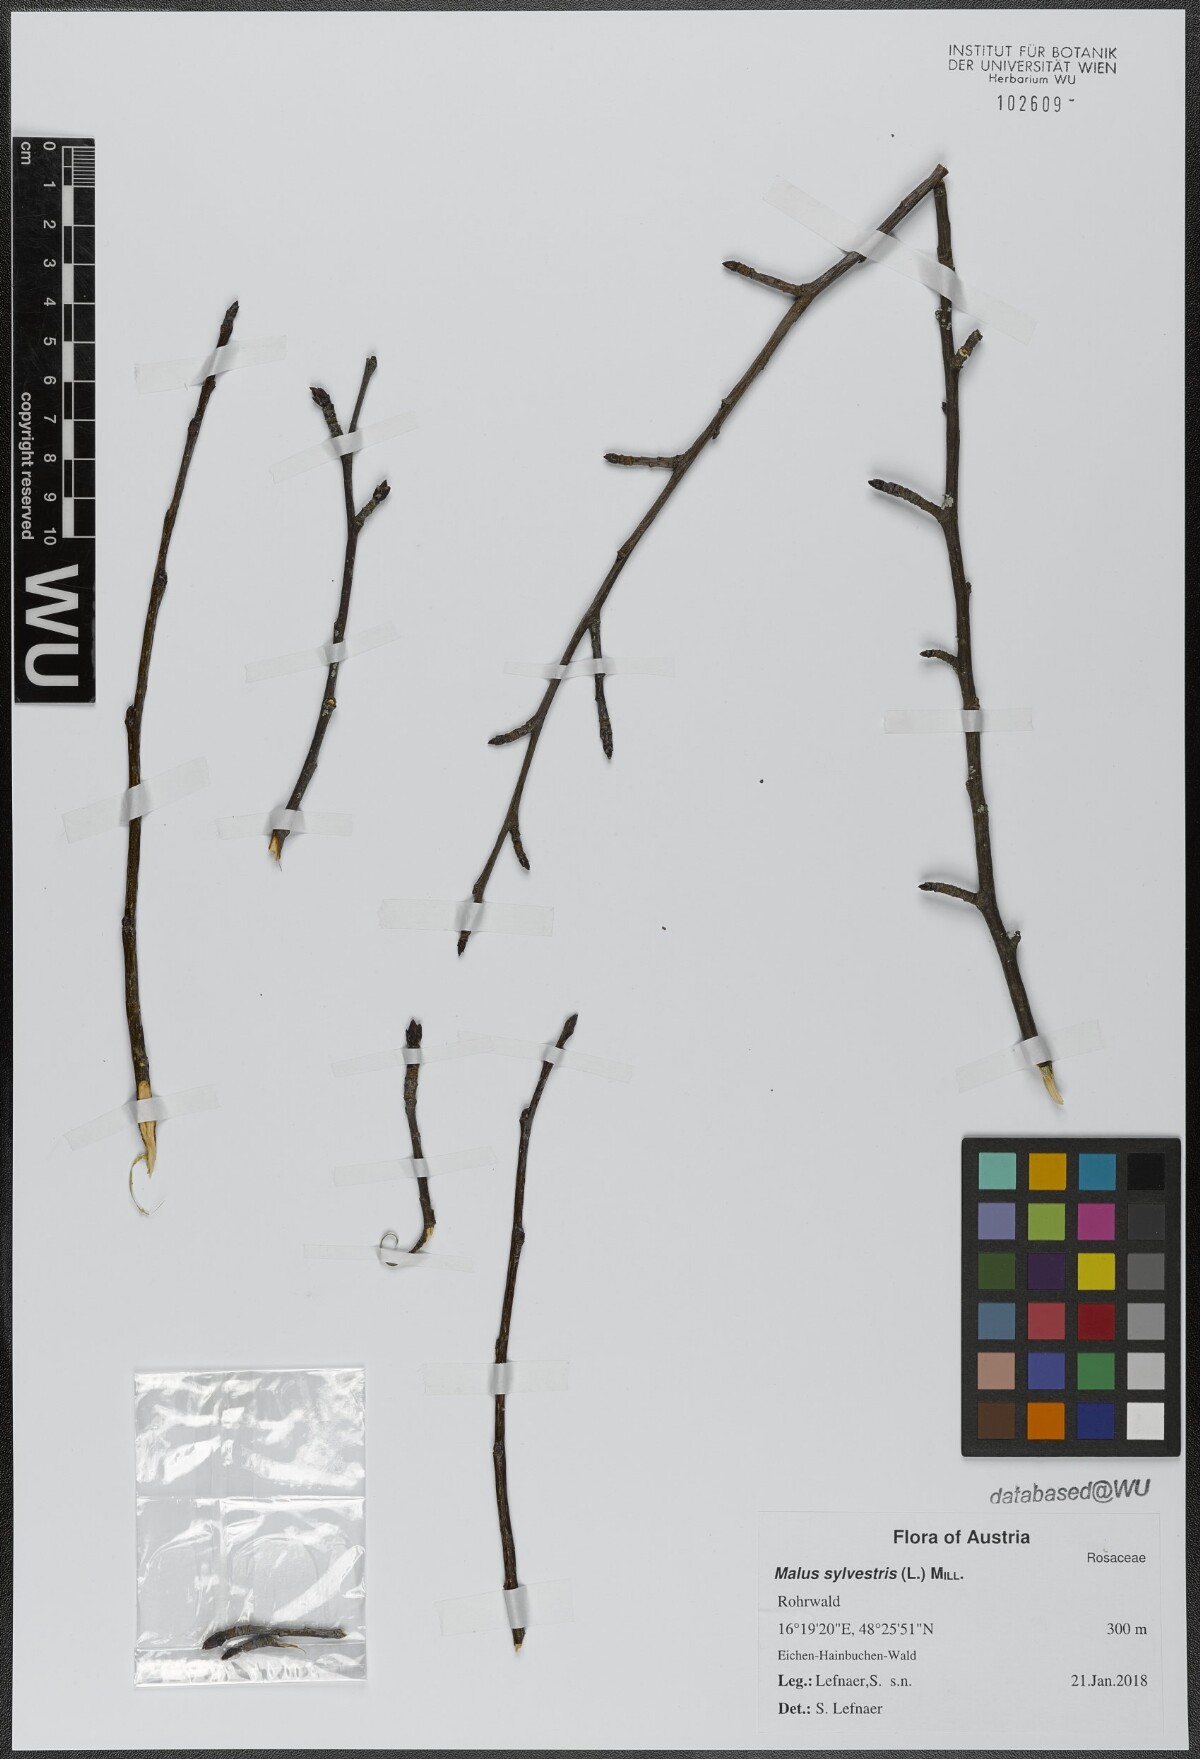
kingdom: Plantae
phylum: Tracheophyta
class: Magnoliopsida
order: Rosales
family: Rosaceae
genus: Malus
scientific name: Malus sylvestris
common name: Crab apple
